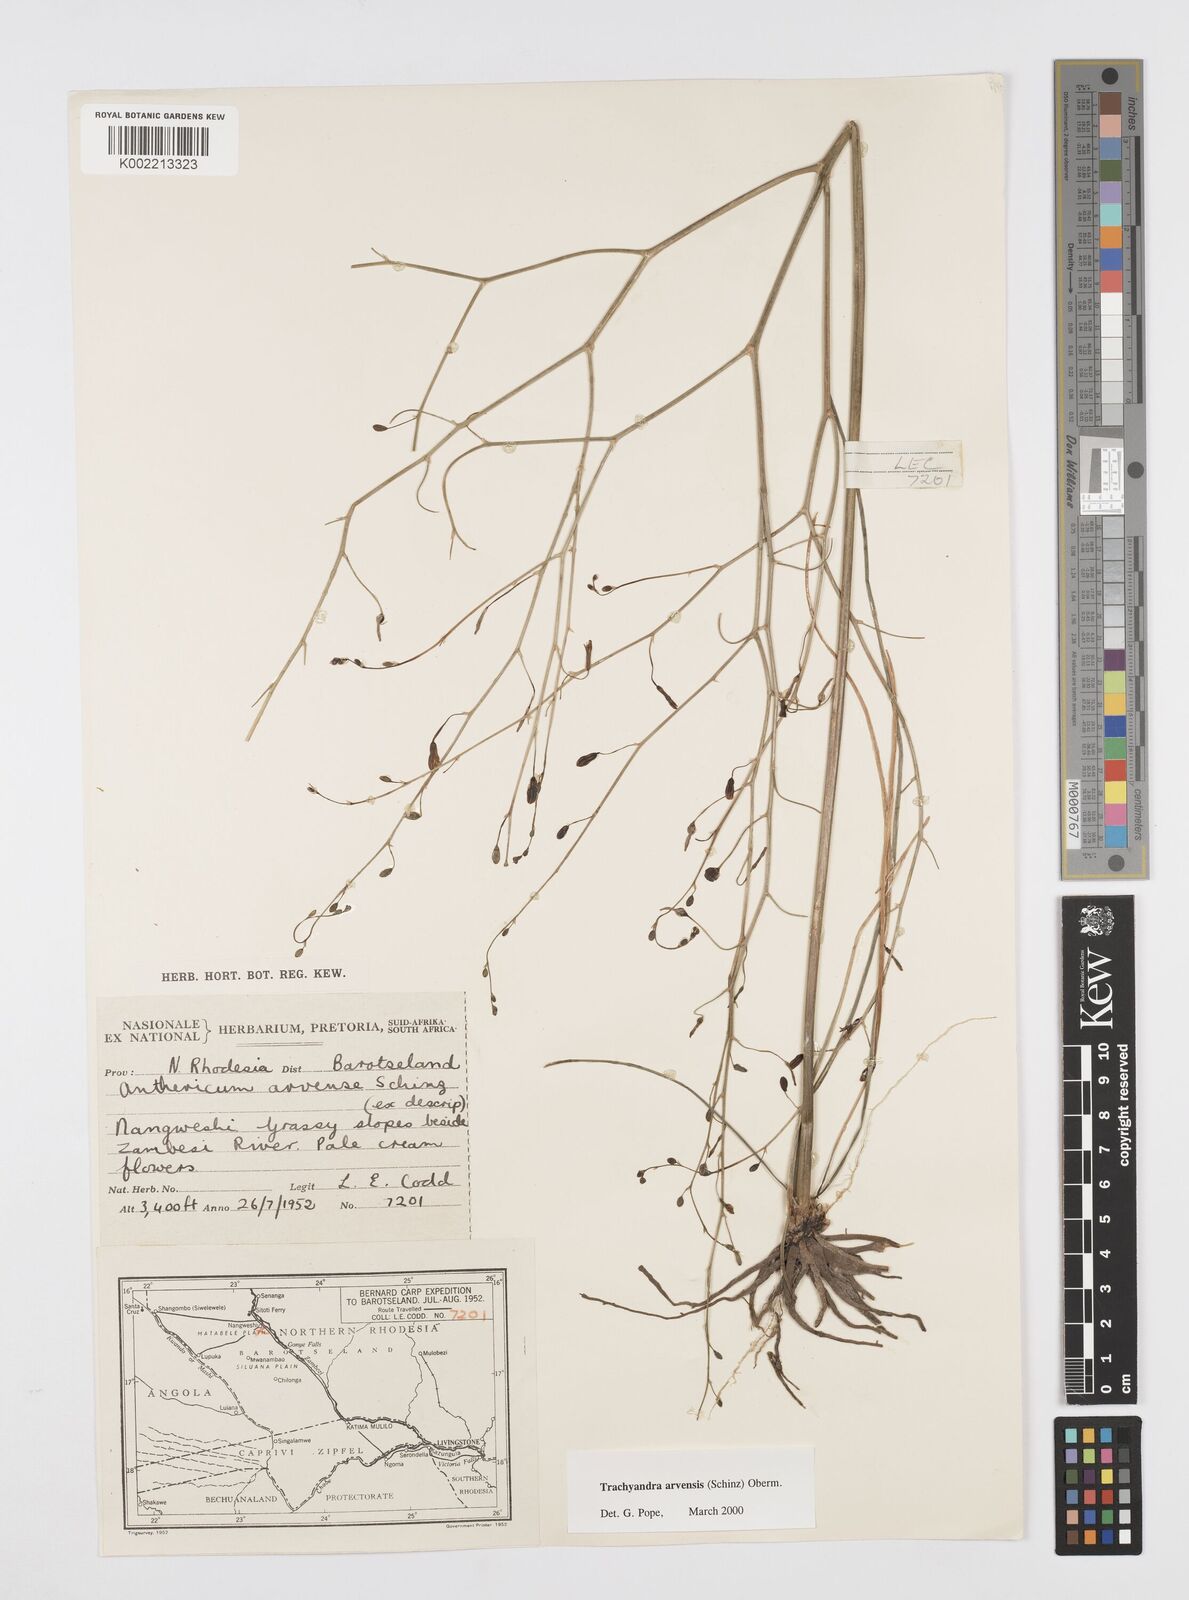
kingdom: Plantae
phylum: Tracheophyta
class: Liliopsida
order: Asparagales
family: Asphodelaceae
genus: Trachyandra
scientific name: Trachyandra arvensis
